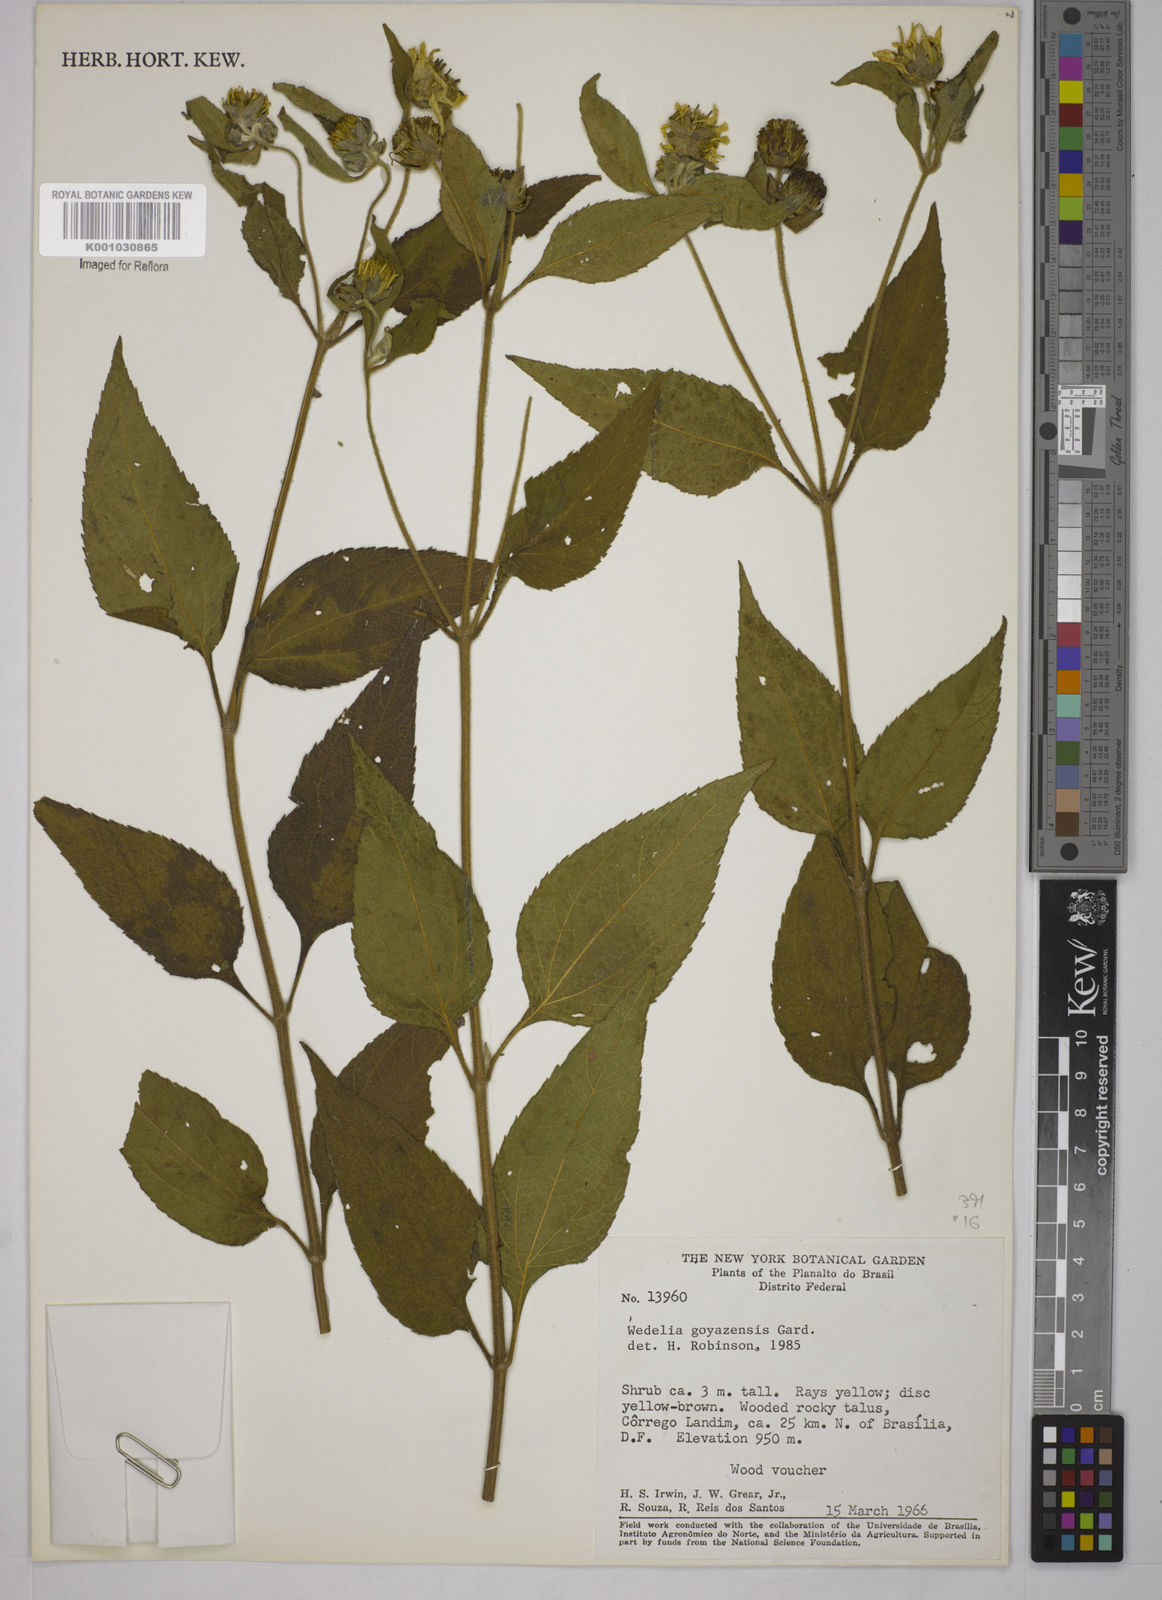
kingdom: Plantae
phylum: Tracheophyta
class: Magnoliopsida
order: Asterales
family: Asteraceae
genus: Wedelia
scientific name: Wedelia goyazensis
